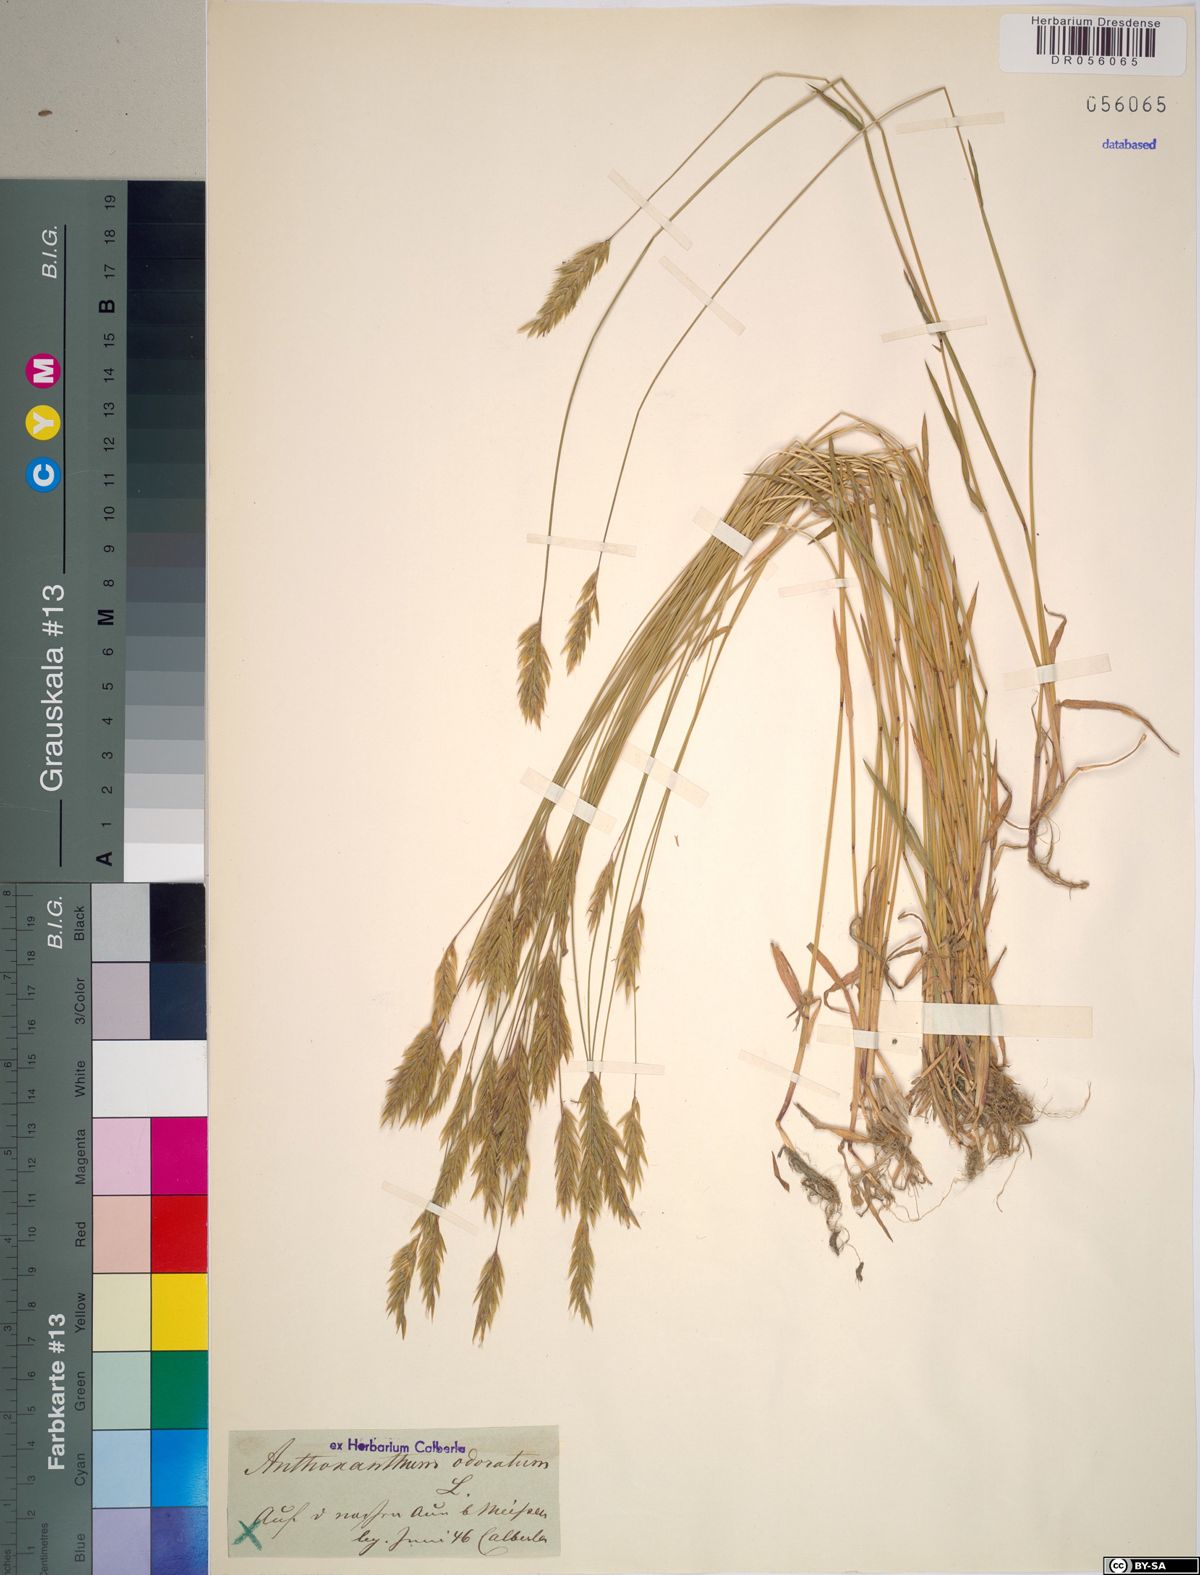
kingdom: Plantae
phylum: Tracheophyta
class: Liliopsida
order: Poales
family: Poaceae
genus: Anthoxanthum
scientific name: Anthoxanthum odoratum
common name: Sweet vernalgrass
